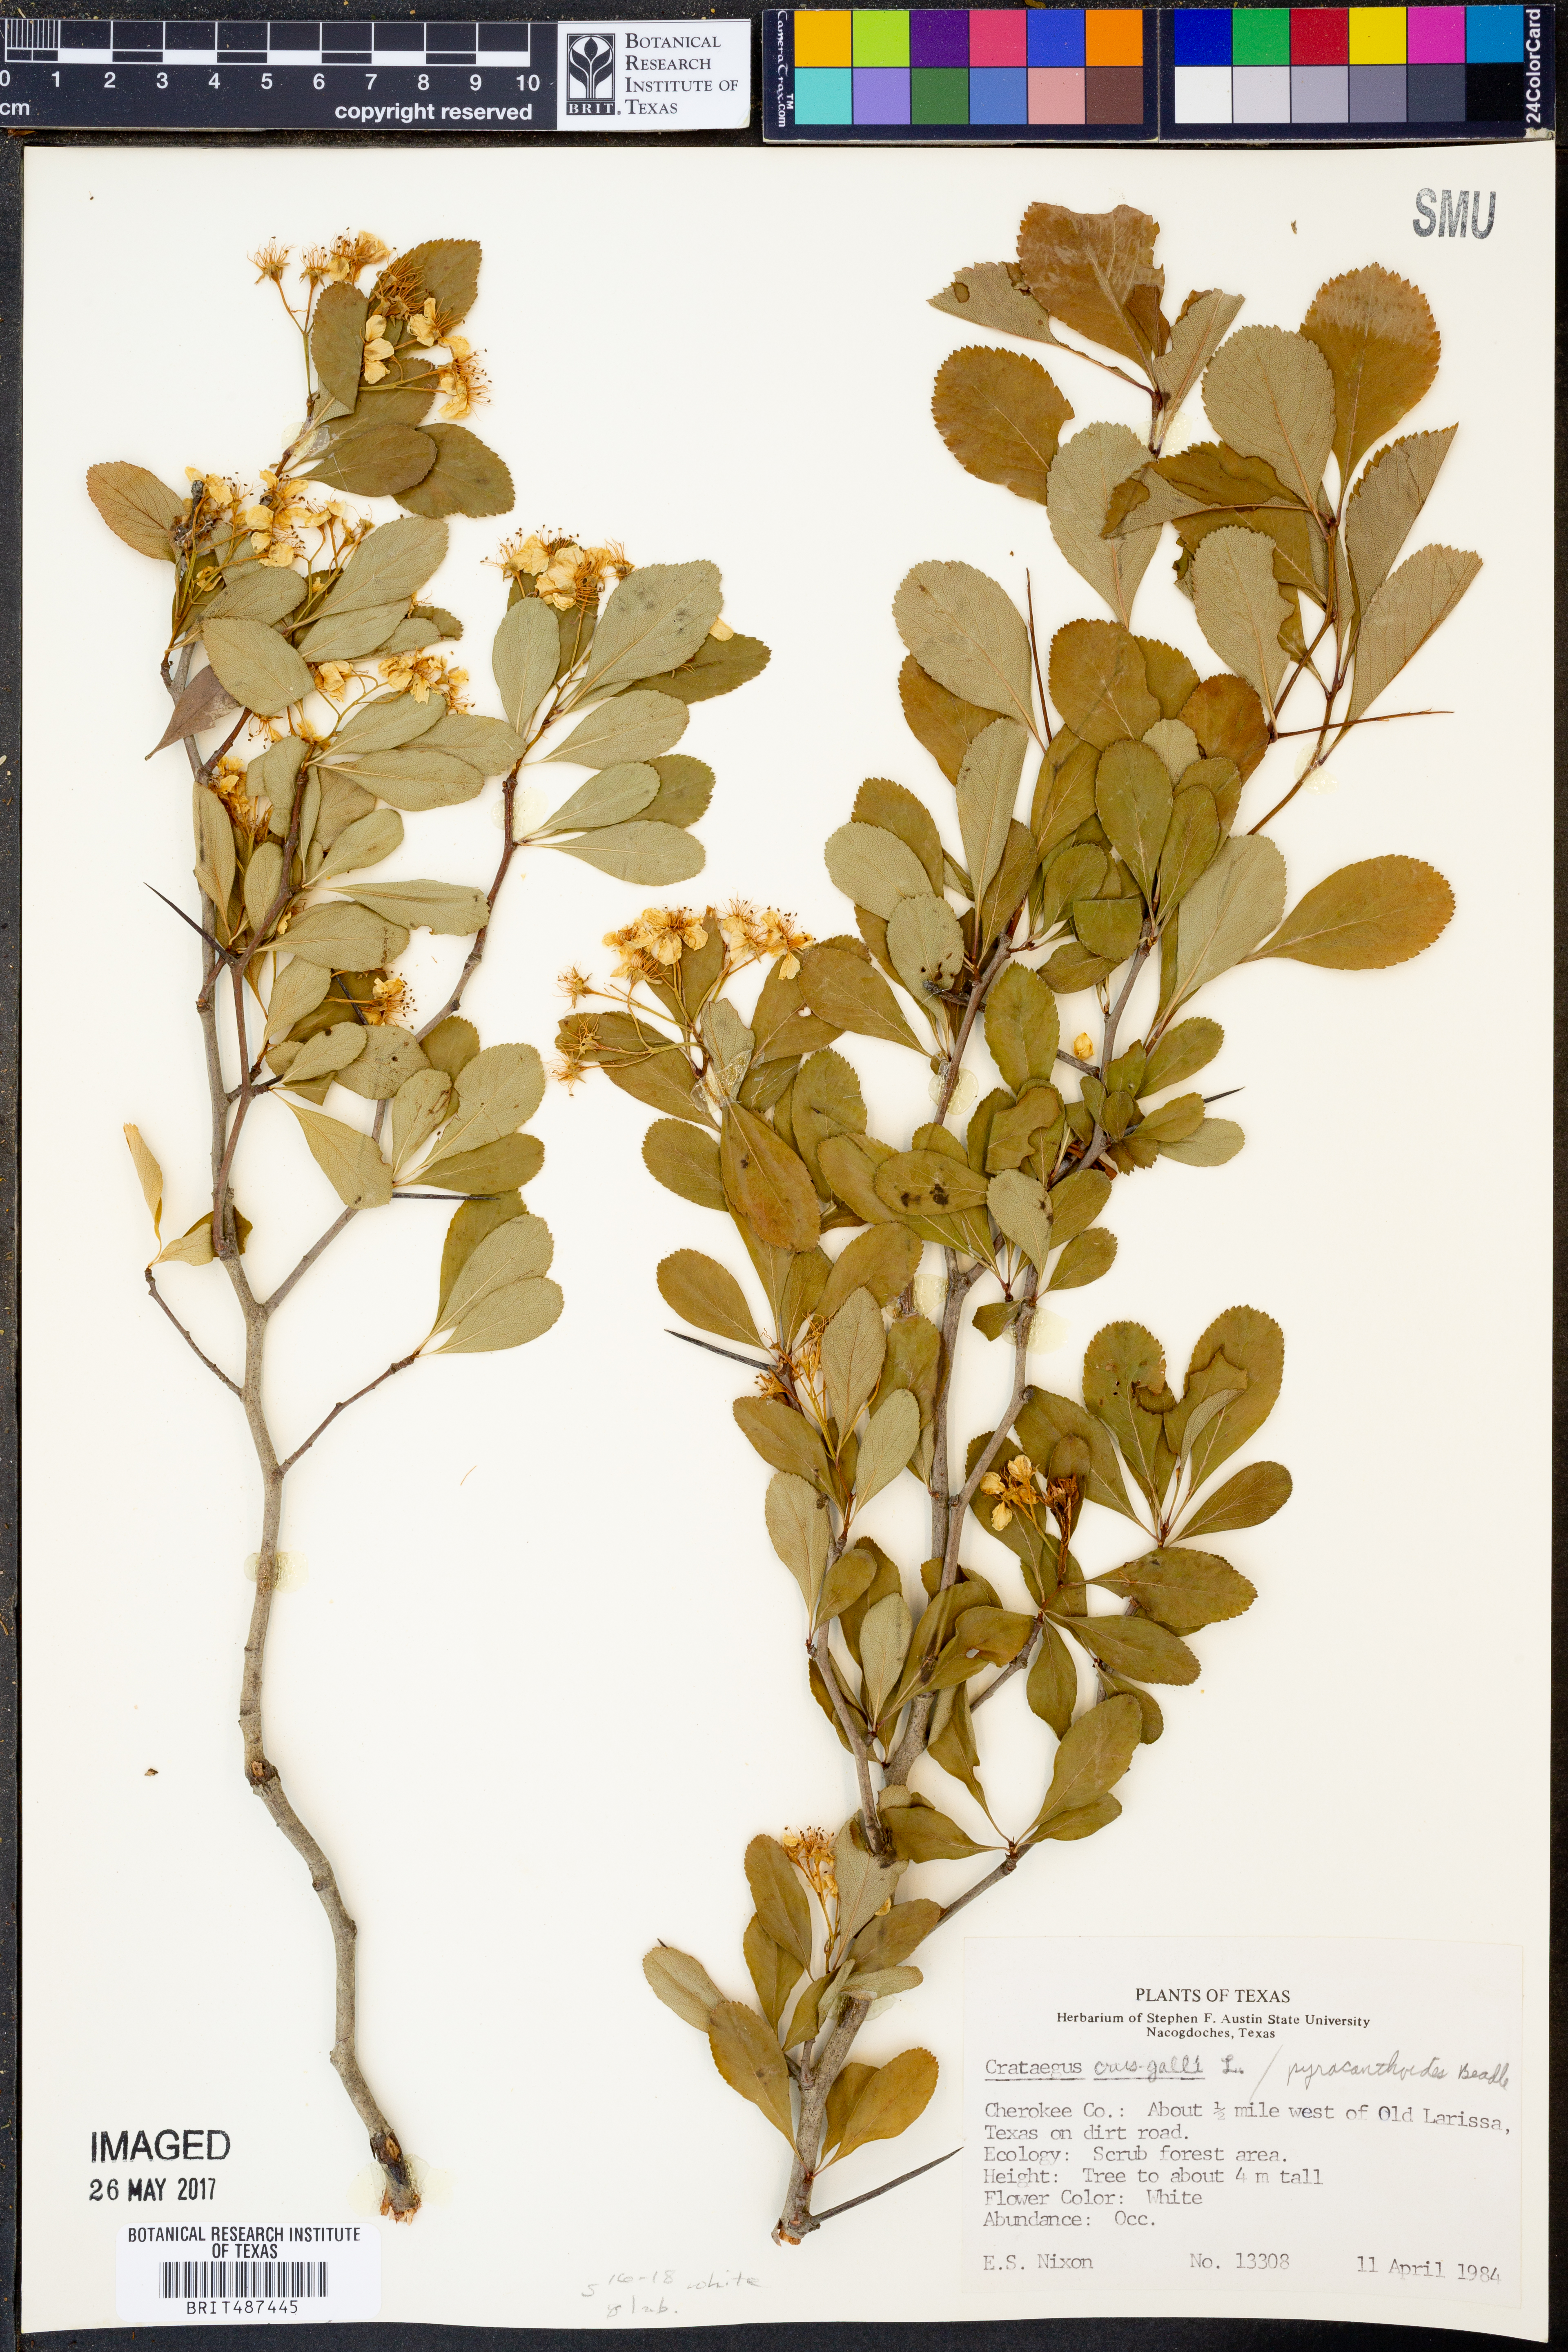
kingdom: Plantae
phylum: Tracheophyta
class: Magnoliopsida
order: Rosales
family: Rosaceae
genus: Crataegus
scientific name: Crataegus crus-galli
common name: Cockspurthorn
